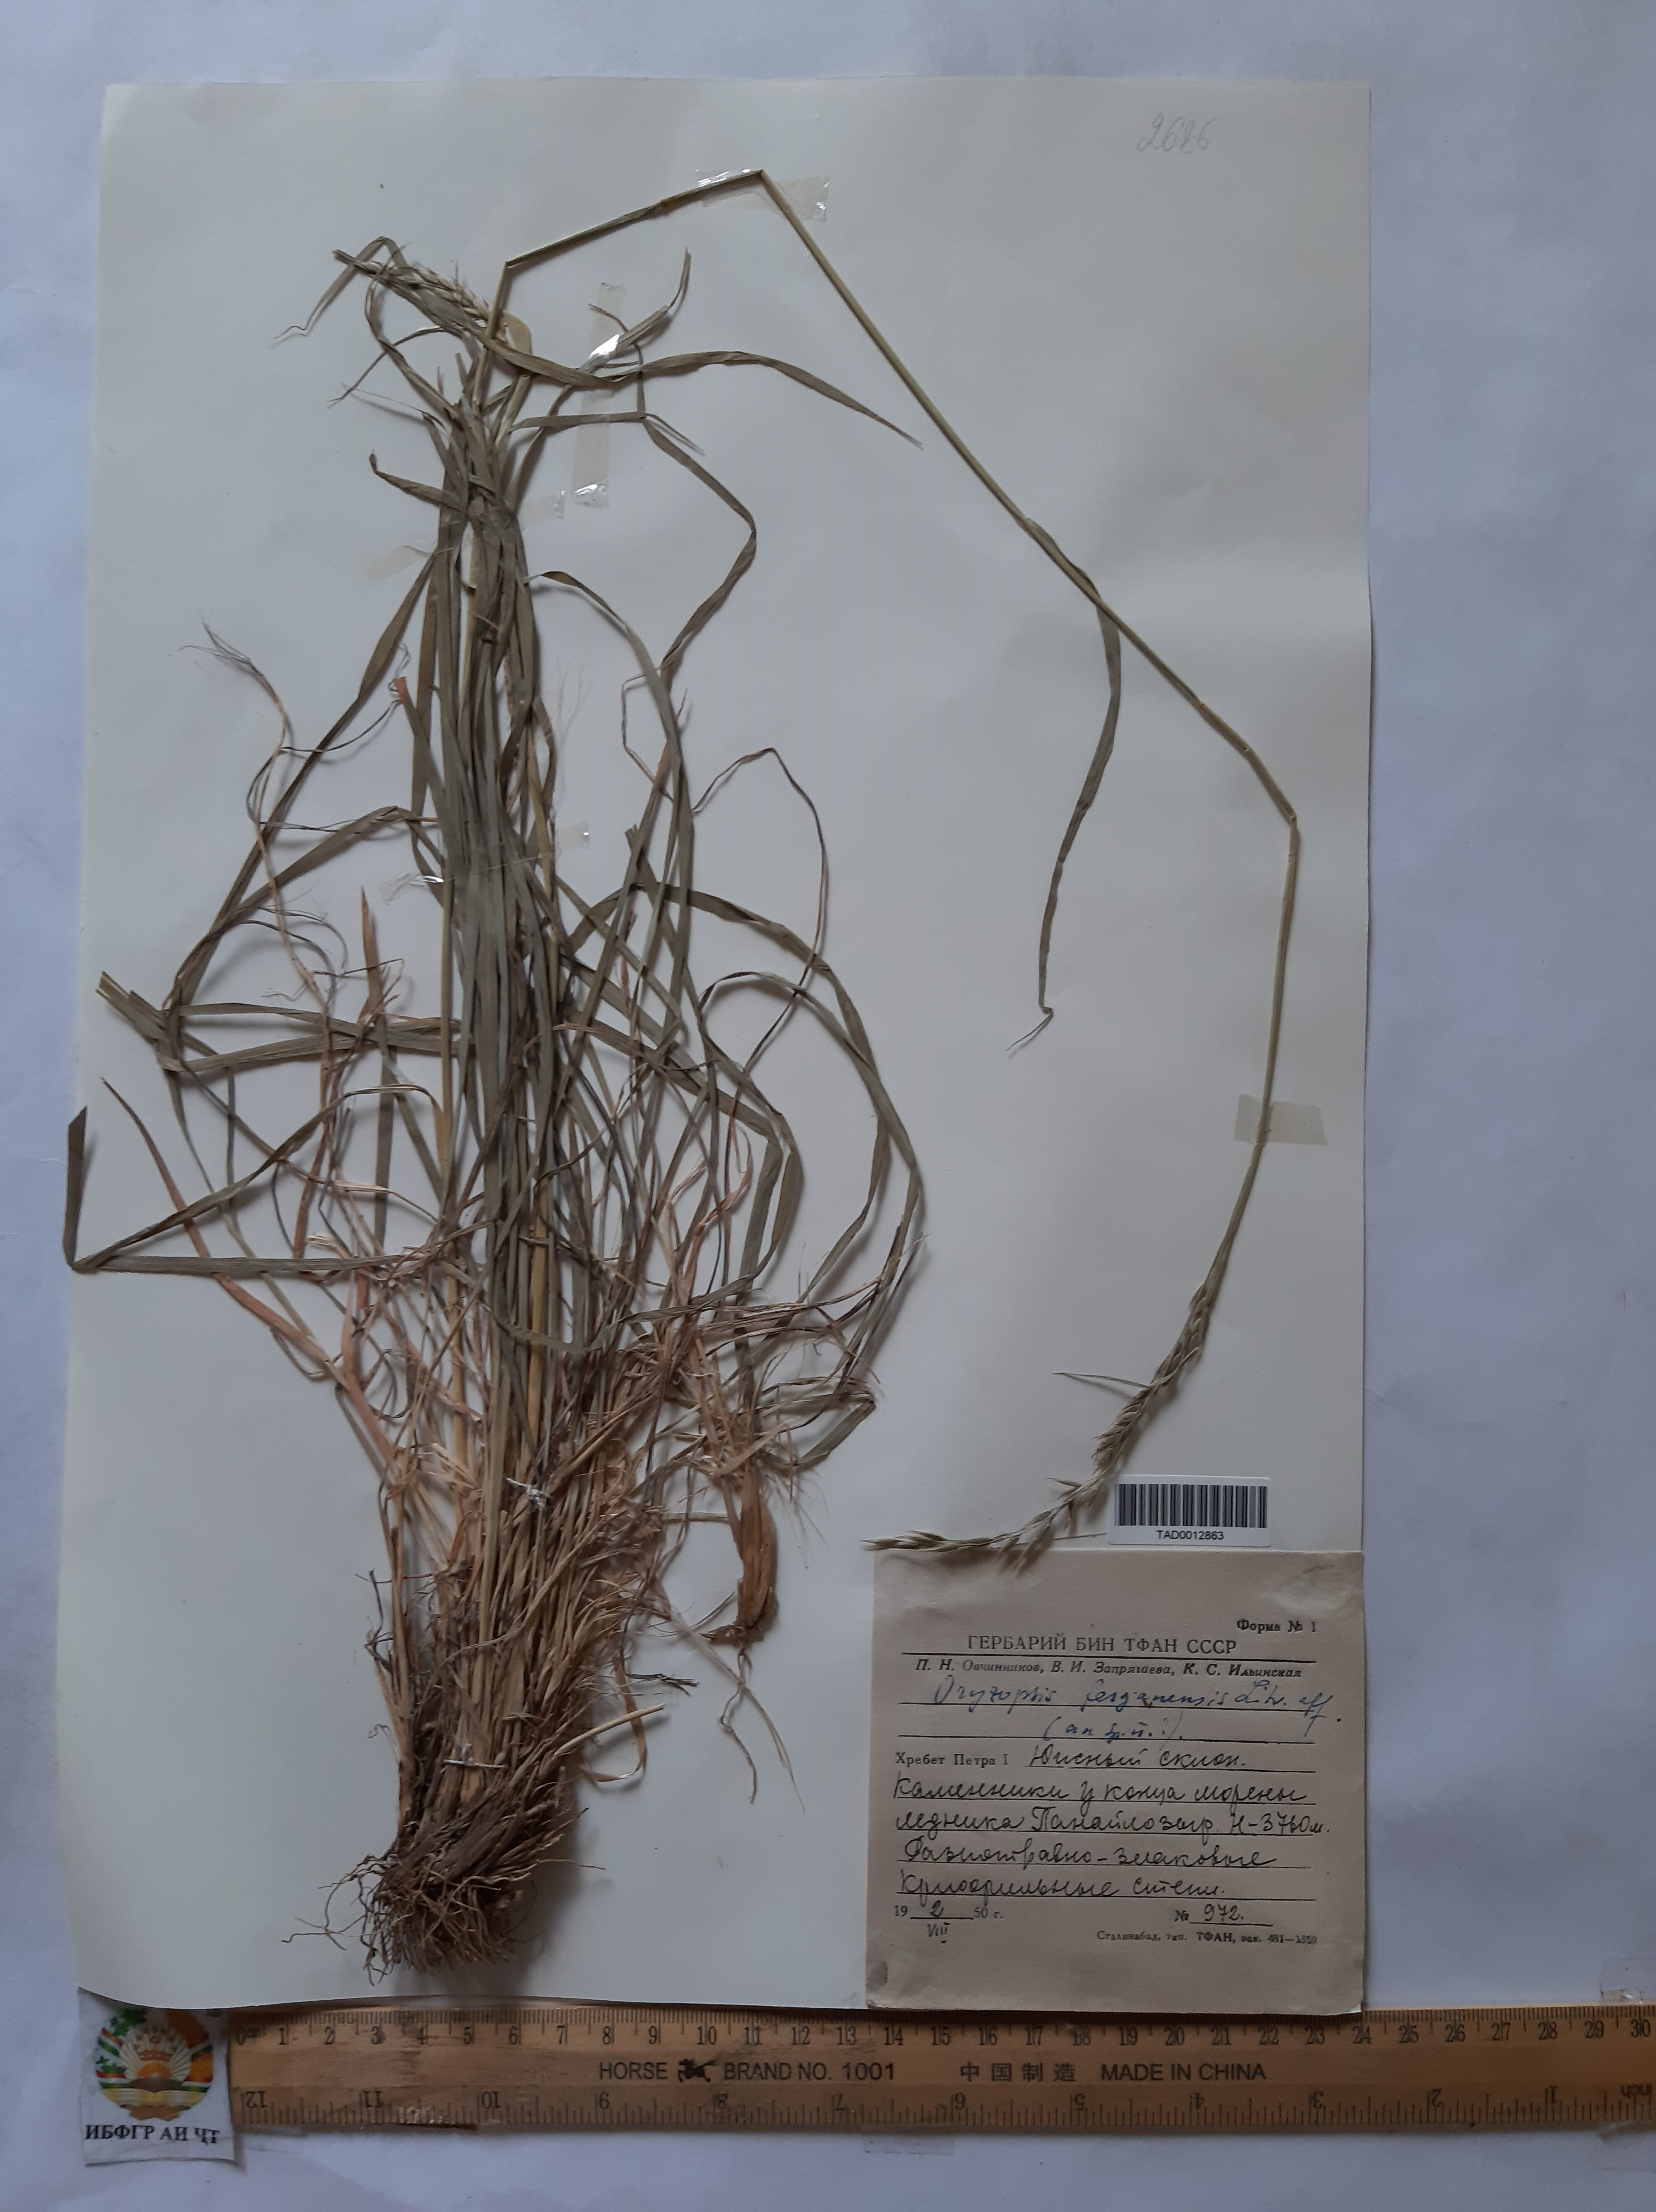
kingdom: Plantae
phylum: Tracheophyta
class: Liliopsida
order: Poales
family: Poaceae
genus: Piptatherum
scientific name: Piptatherum ferganense
